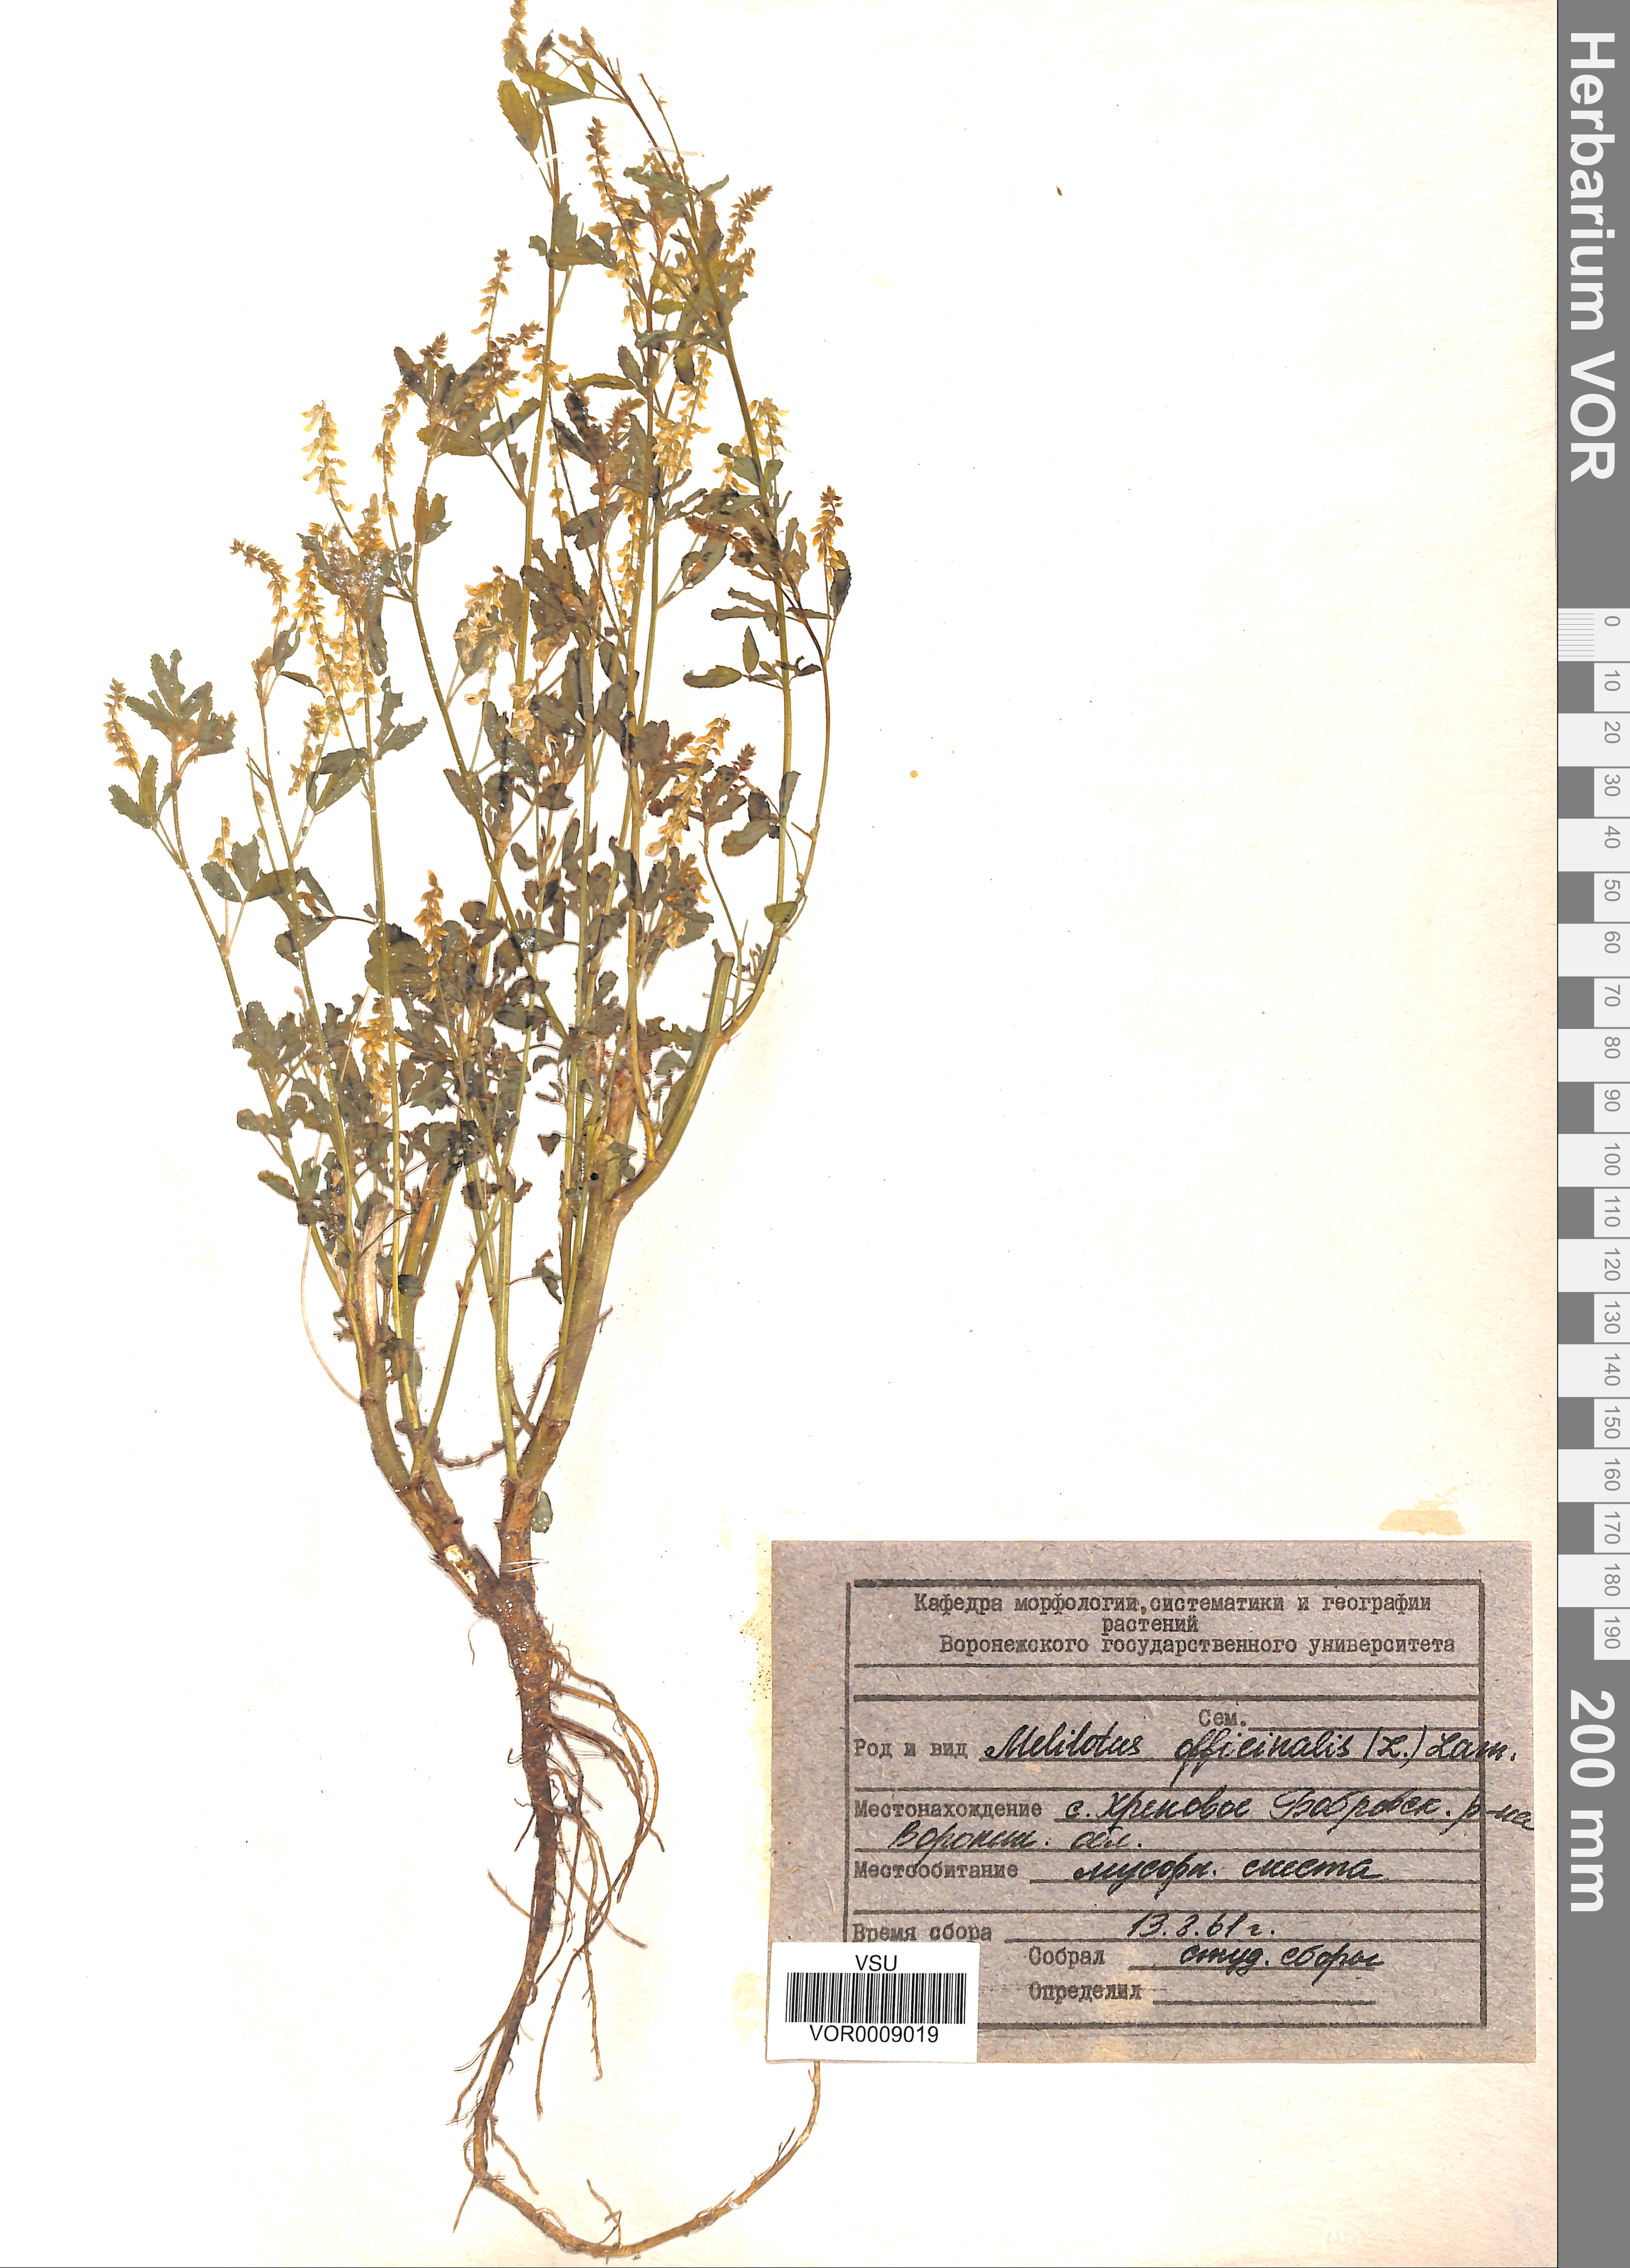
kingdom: Plantae
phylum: Tracheophyta
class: Magnoliopsida
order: Fabales
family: Fabaceae
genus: Melilotus
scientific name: Melilotus officinalis
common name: Sweetclover
